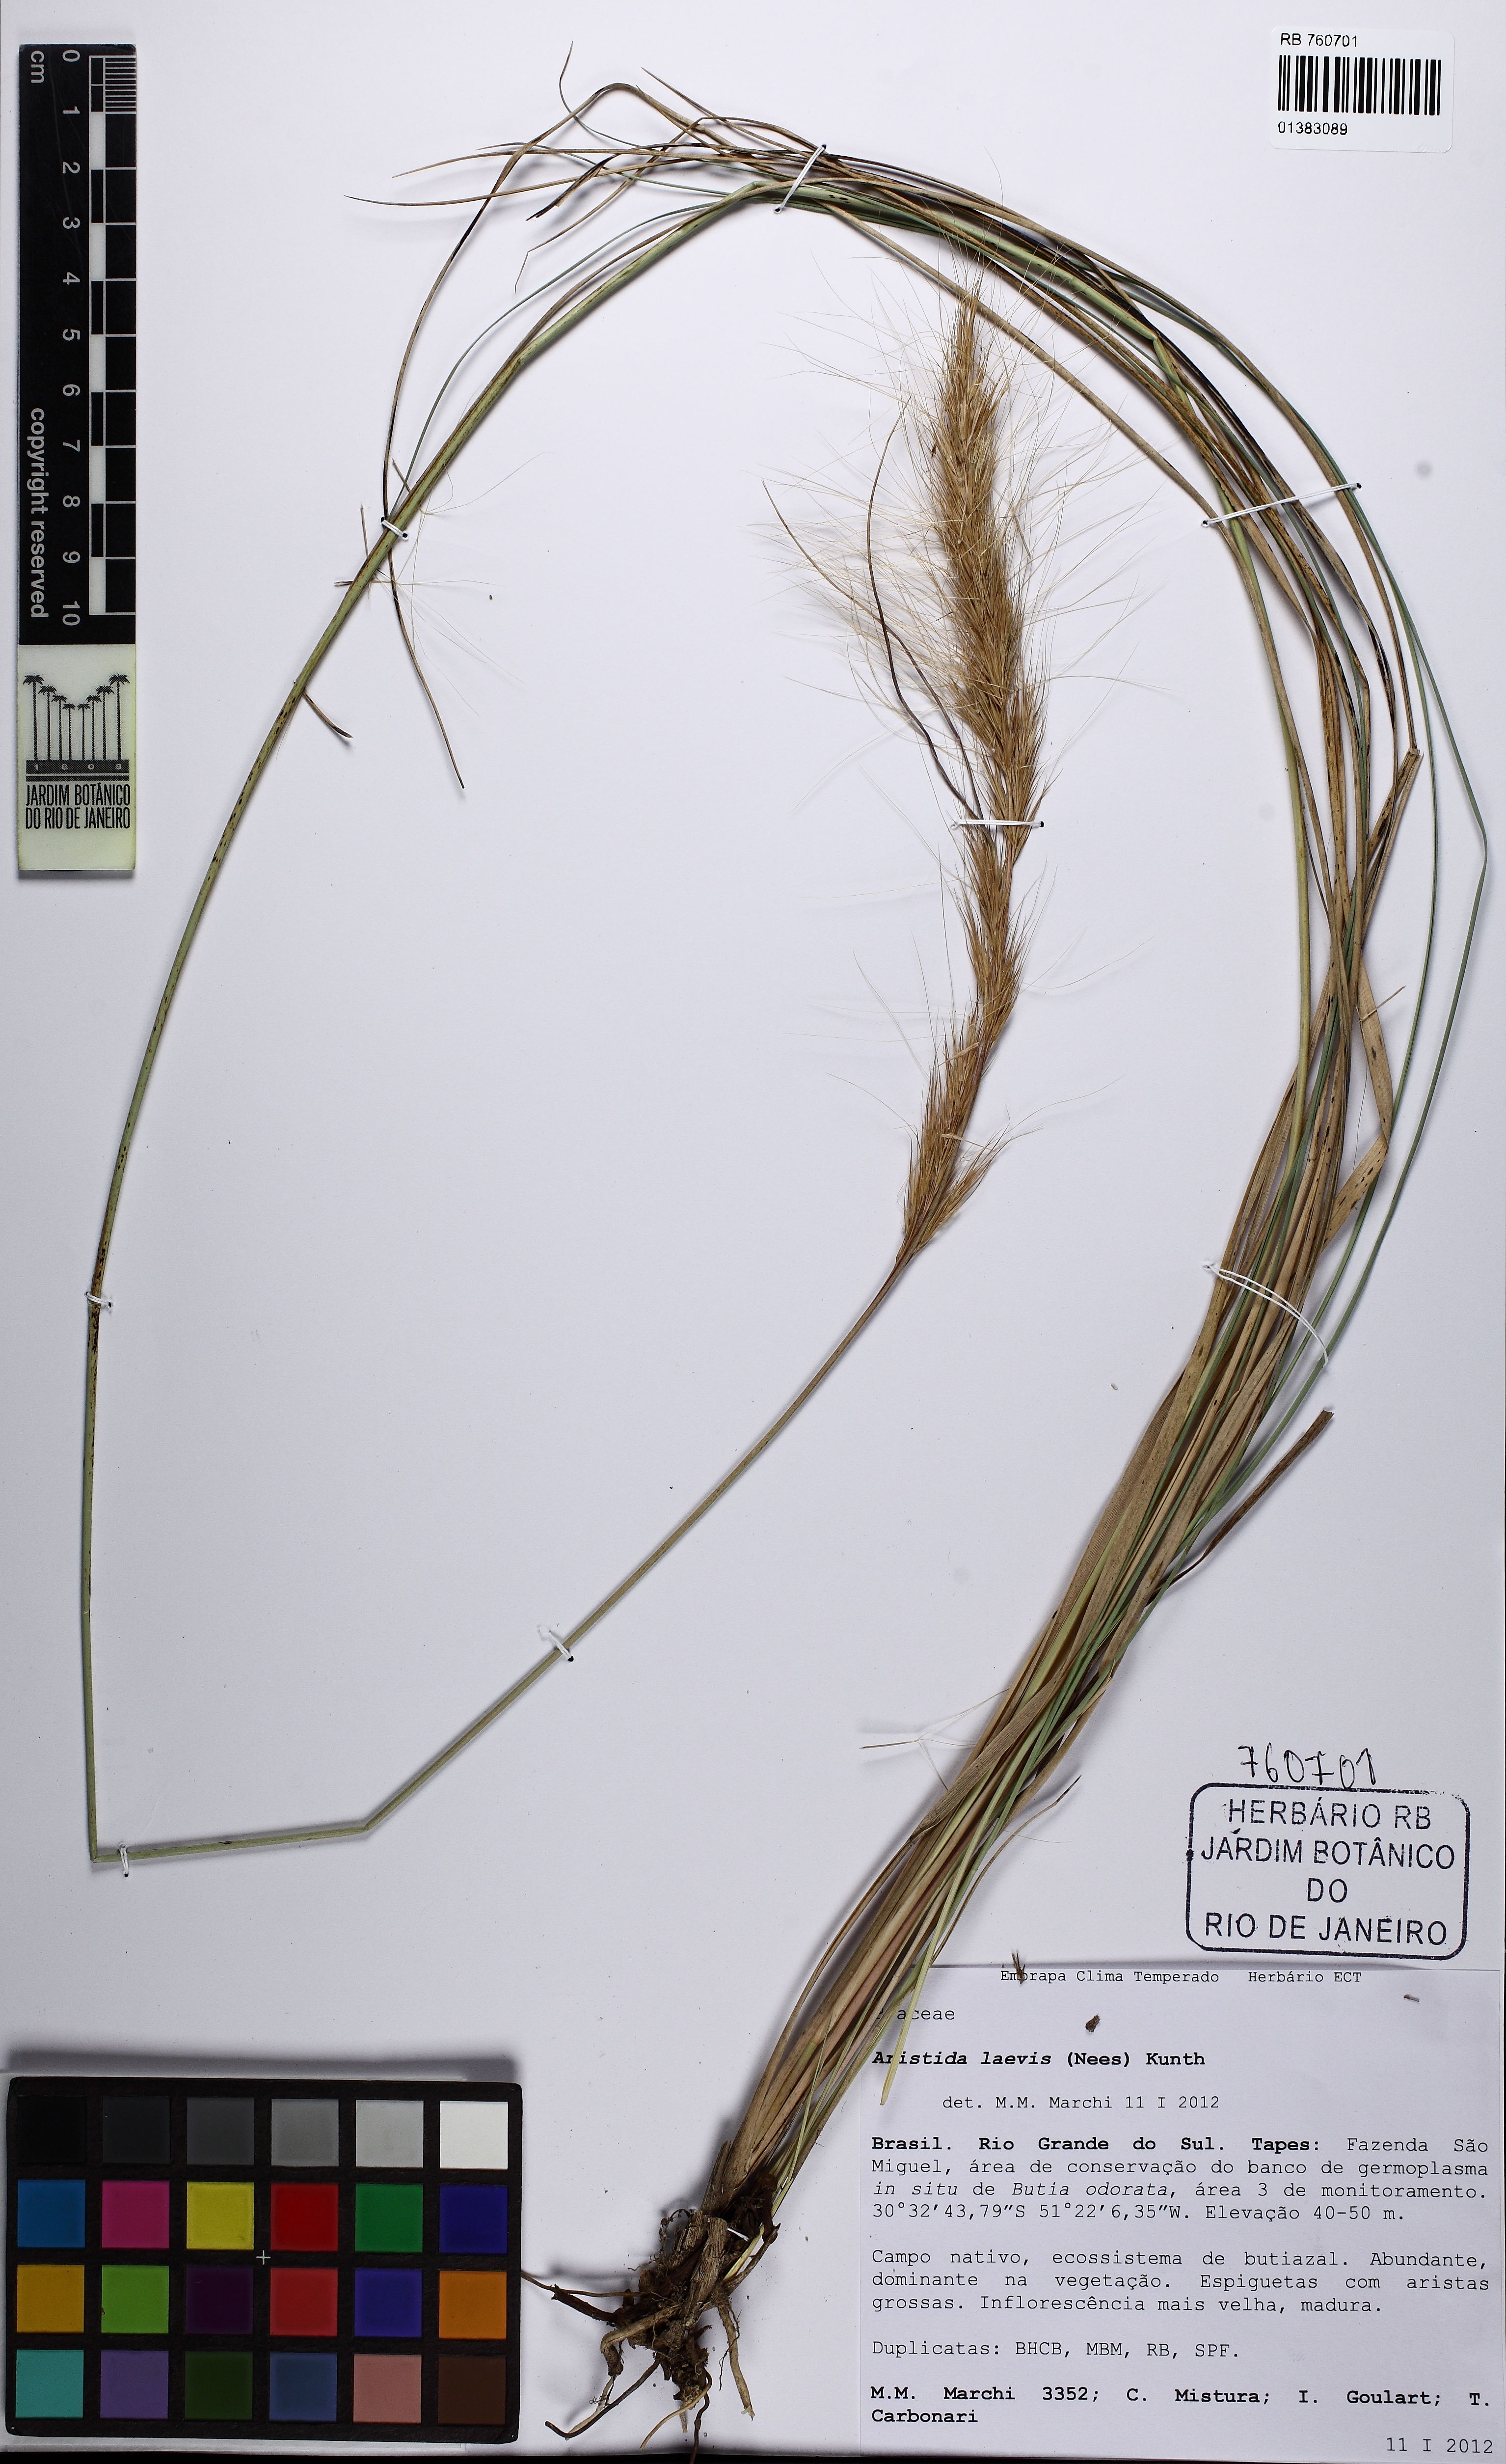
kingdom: Plantae
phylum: Tracheophyta
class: Liliopsida
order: Poales
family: Poaceae
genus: Aristida
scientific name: Aristida laevis
